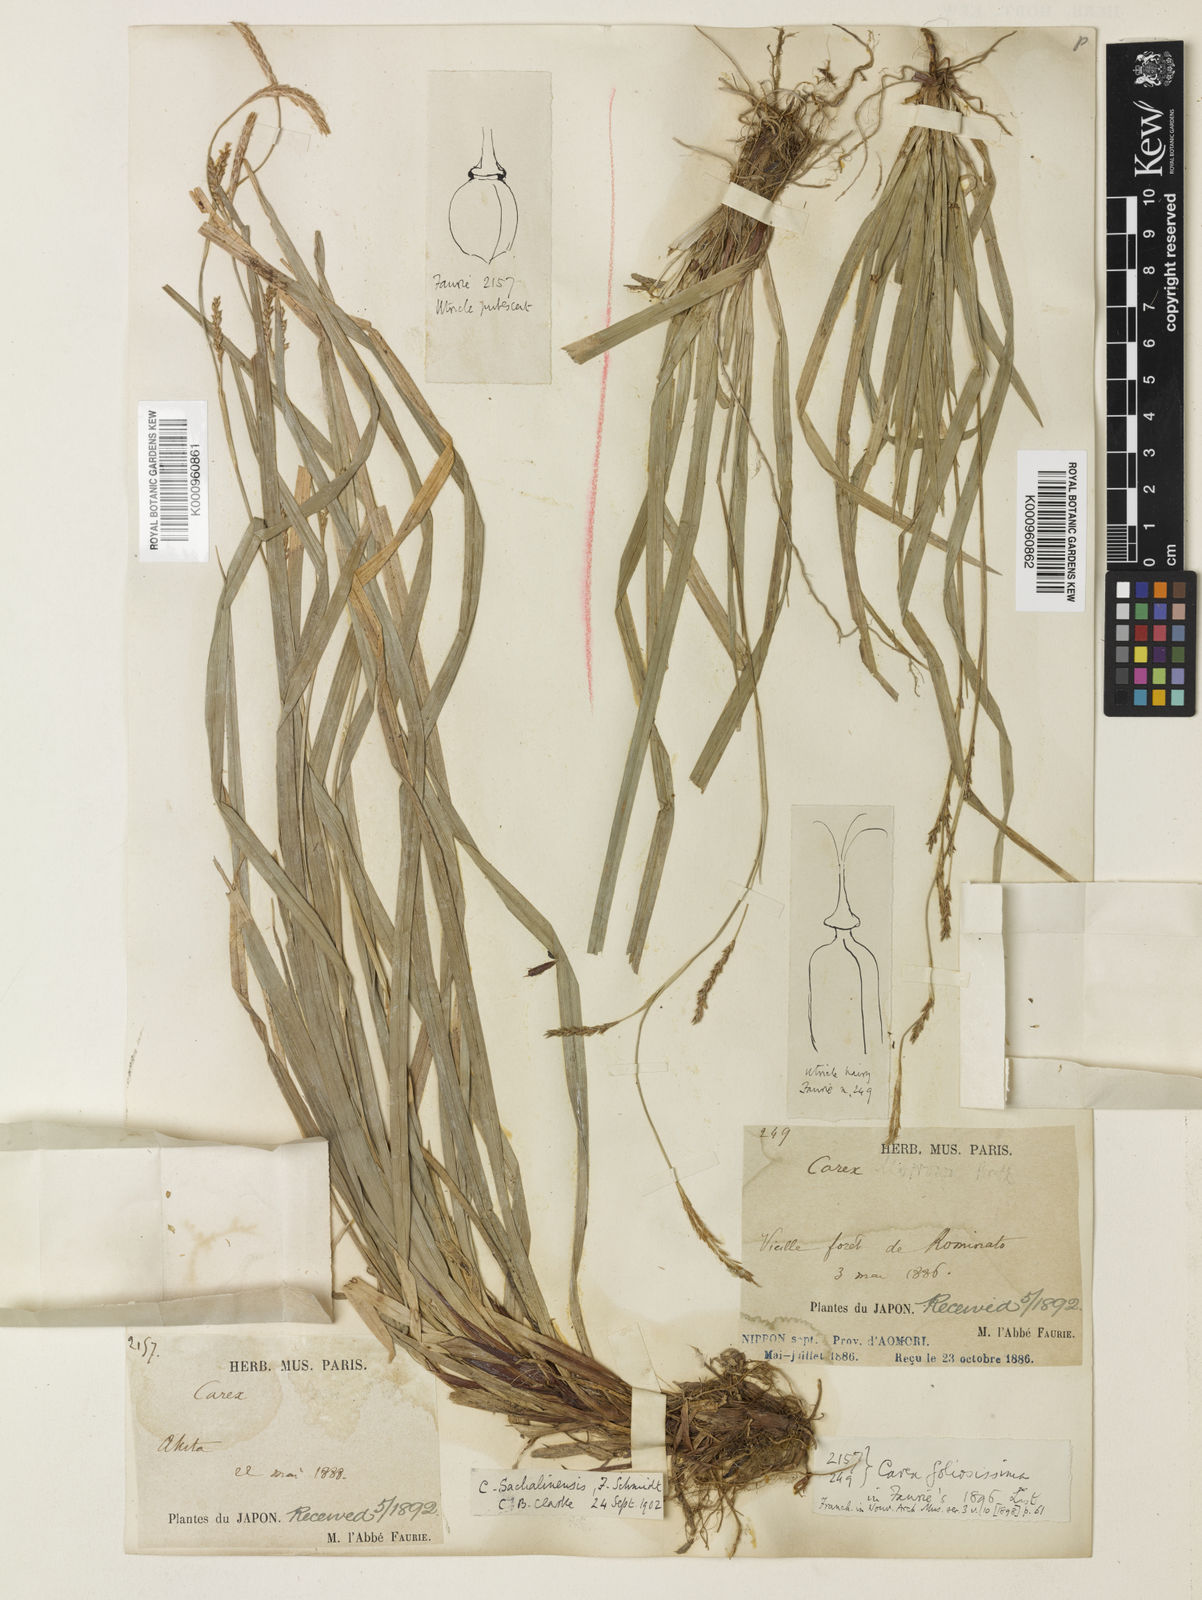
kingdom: Plantae
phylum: Tracheophyta
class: Liliopsida
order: Poales
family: Cyperaceae
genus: Carex
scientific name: Carex foliosissima
